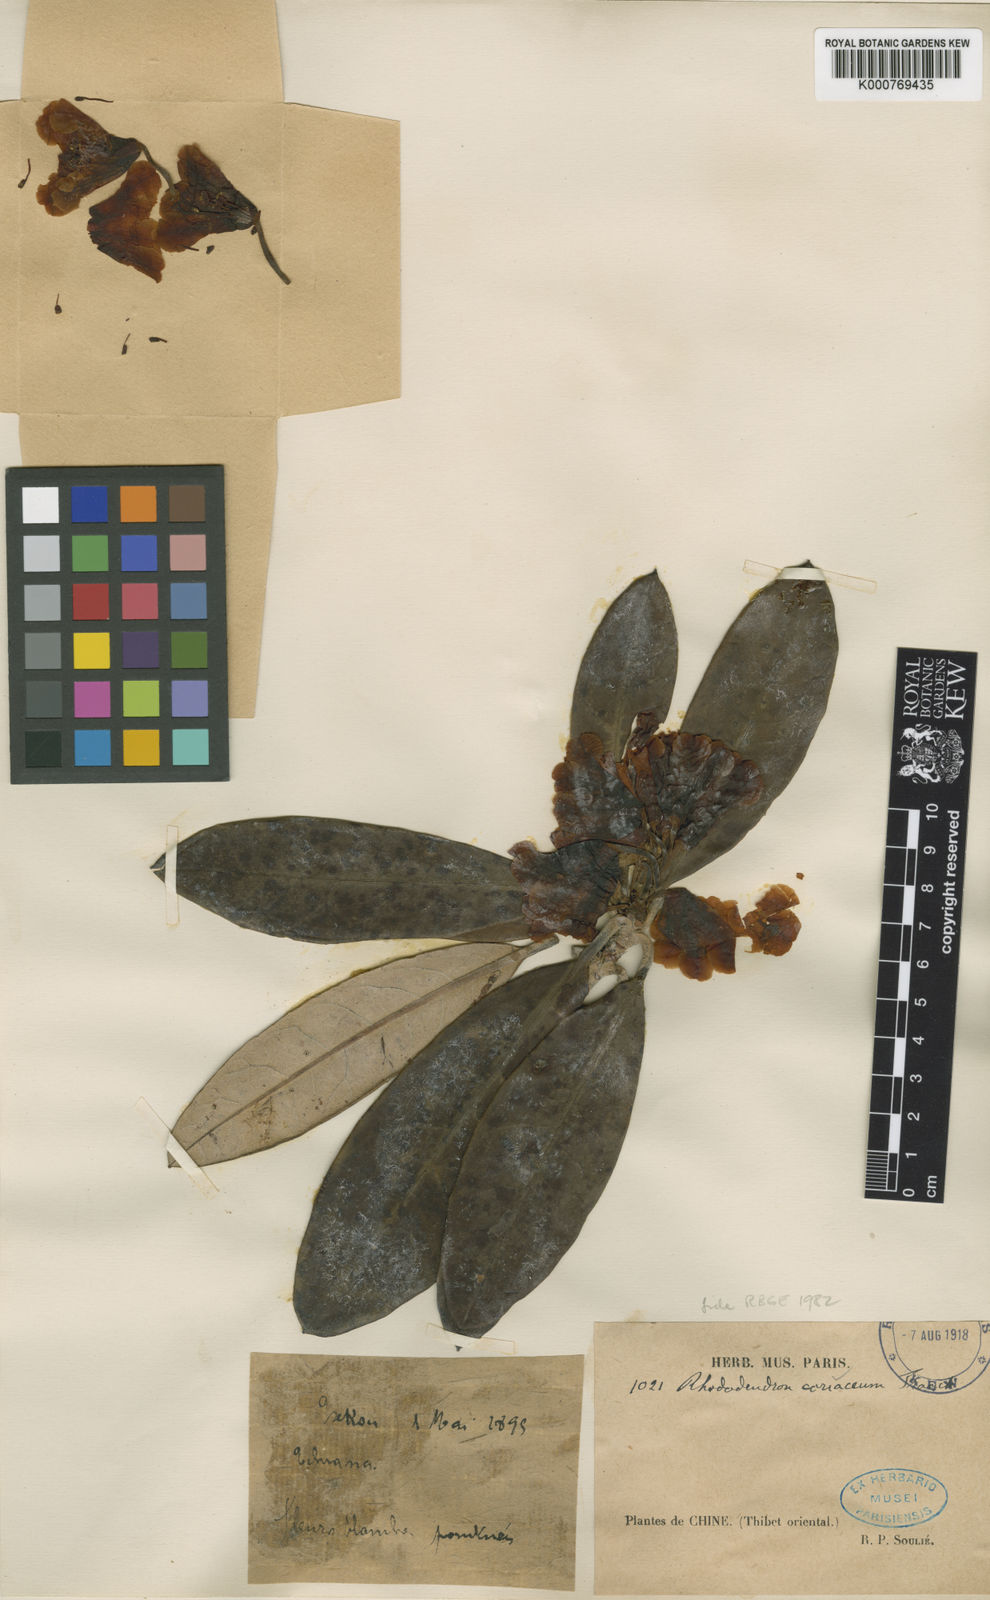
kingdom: Plantae
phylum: Tracheophyta
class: Magnoliopsida
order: Ericales
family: Ericaceae
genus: Rhododendron
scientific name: Rhododendron coriaceum
